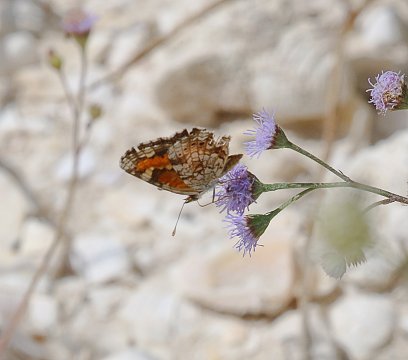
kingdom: Animalia
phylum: Arthropoda
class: Insecta
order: Lepidoptera
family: Nymphalidae
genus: Phyciodes
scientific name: Phyciodes phaon
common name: Phaon Crescent
